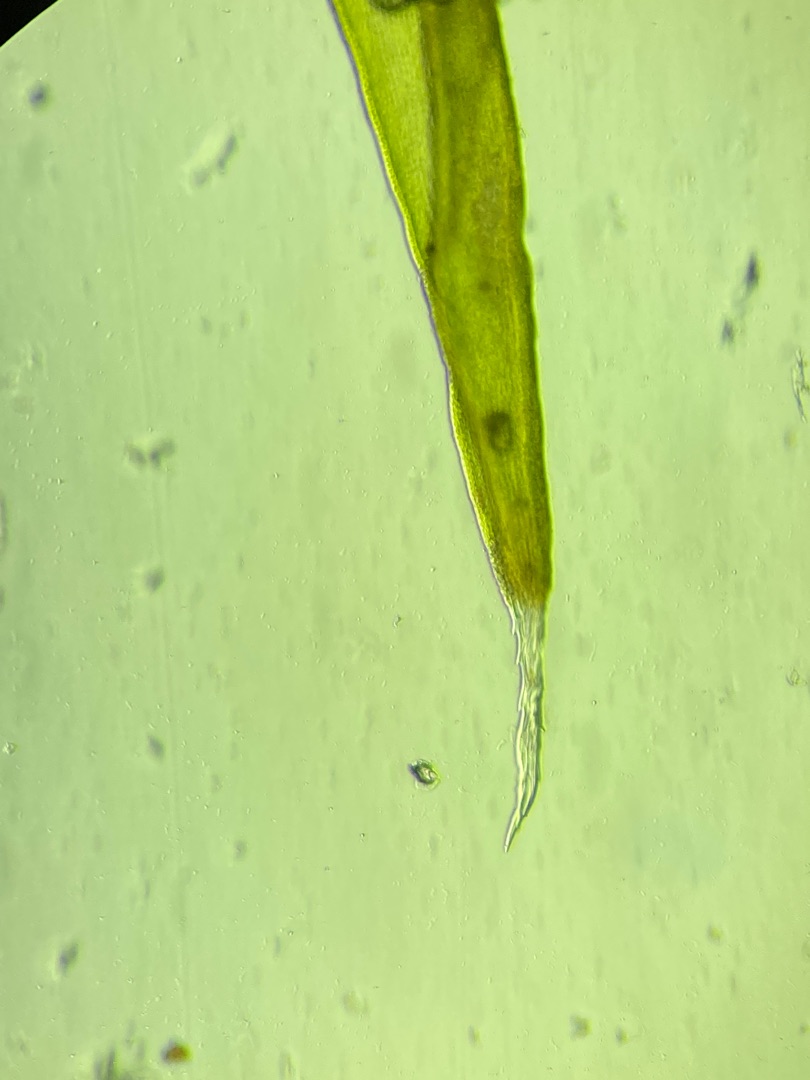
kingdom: Plantae
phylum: Bryophyta
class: Bryopsida
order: Grimmiales
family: Grimmiaceae
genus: Bucklandiella
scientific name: Bucklandiella heterosticha
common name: Sten-børstemos
